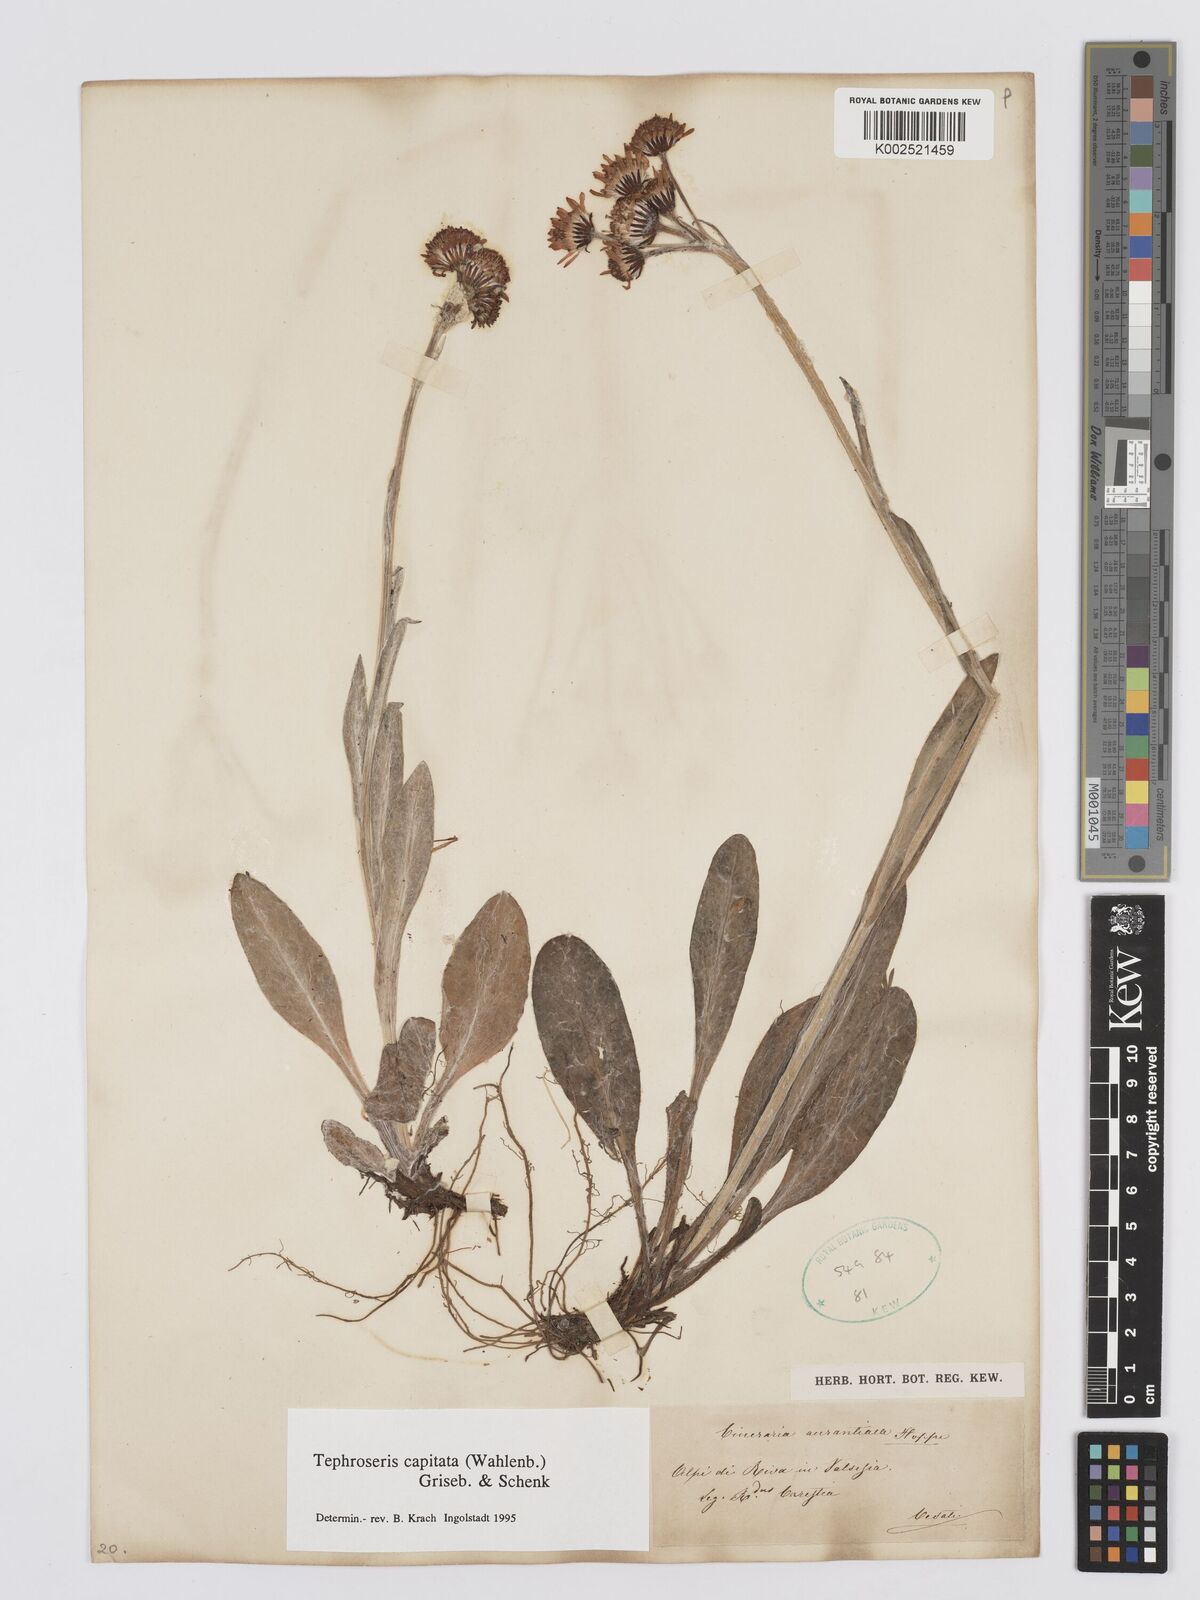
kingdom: Plantae
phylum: Tracheophyta
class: Magnoliopsida
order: Asterales
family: Asteraceae
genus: Tephroseris
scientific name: Tephroseris integrifolia
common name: Field fleawort
